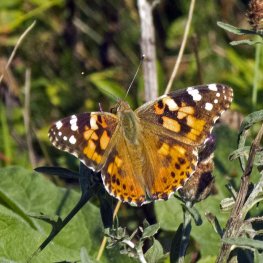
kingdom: Animalia
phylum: Arthropoda
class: Insecta
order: Lepidoptera
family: Nymphalidae
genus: Vanessa
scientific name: Vanessa cardui
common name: Painted Lady
